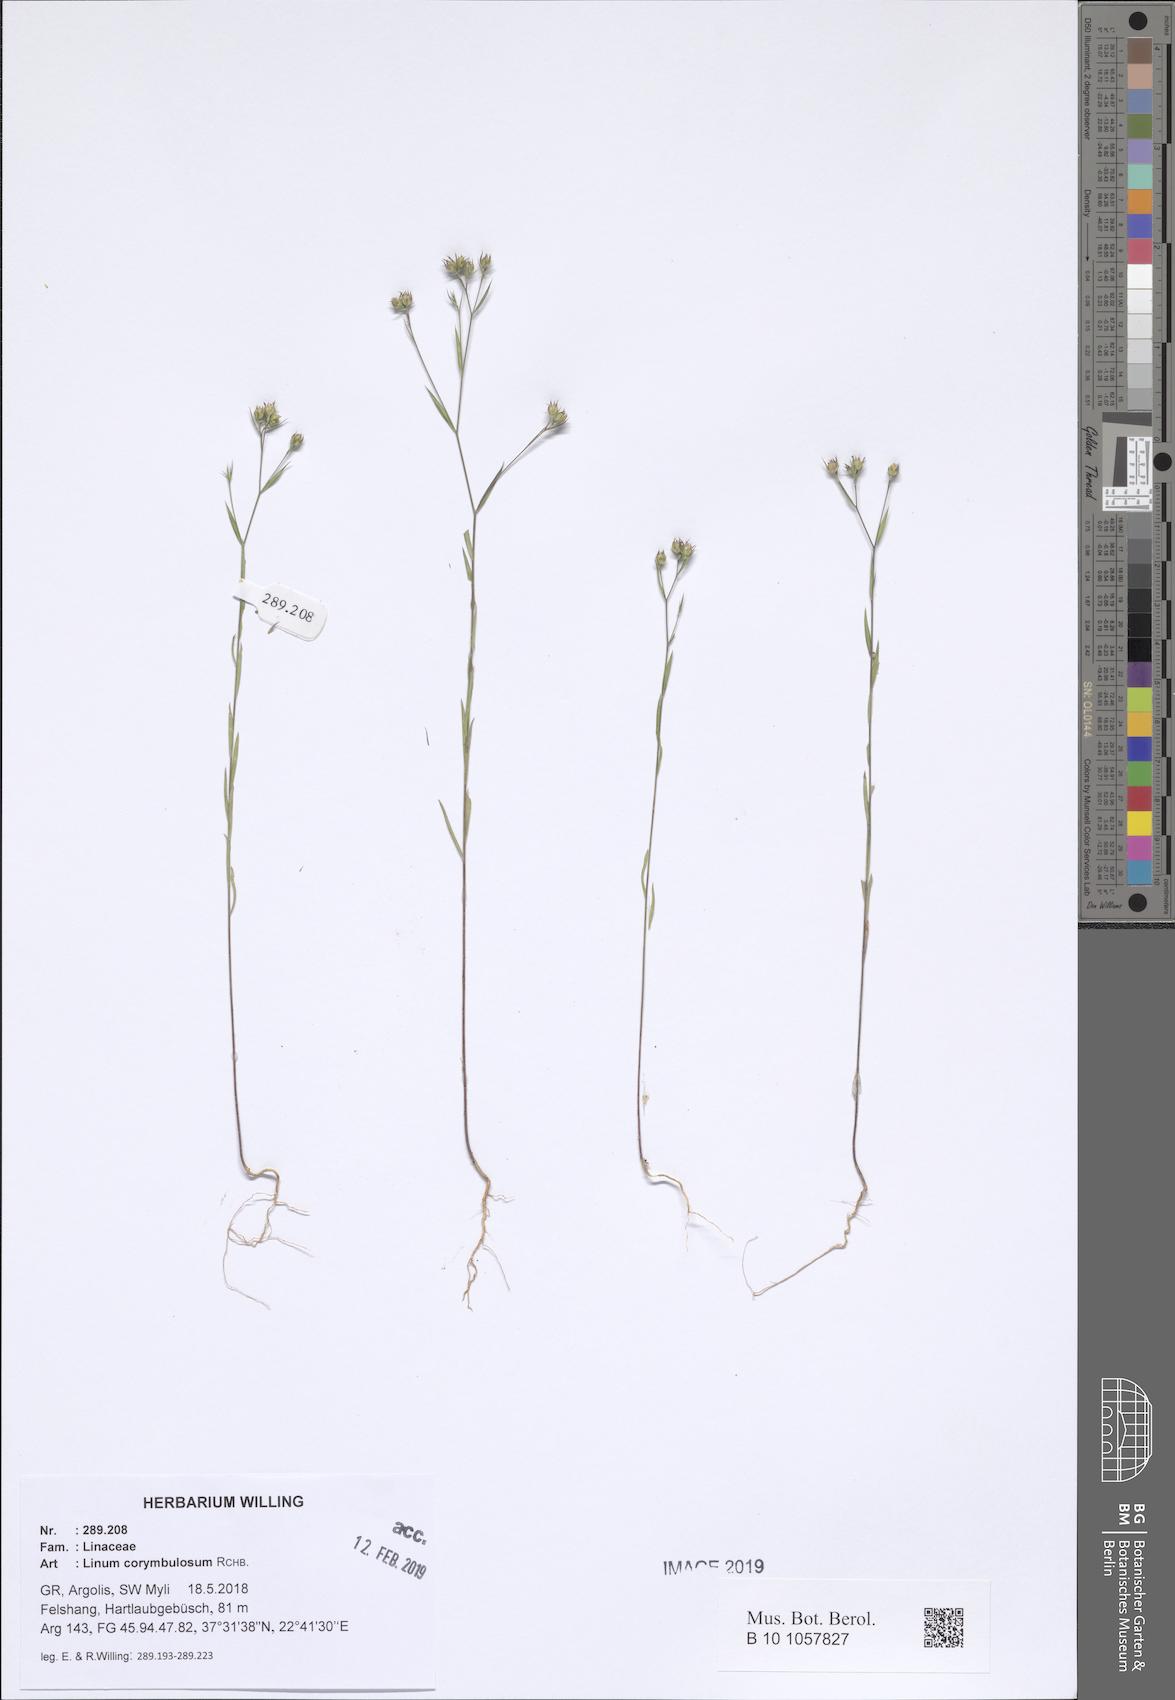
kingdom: Plantae
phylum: Tracheophyta
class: Magnoliopsida
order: Malpighiales
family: Linaceae
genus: Linum
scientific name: Linum corymbulosum
